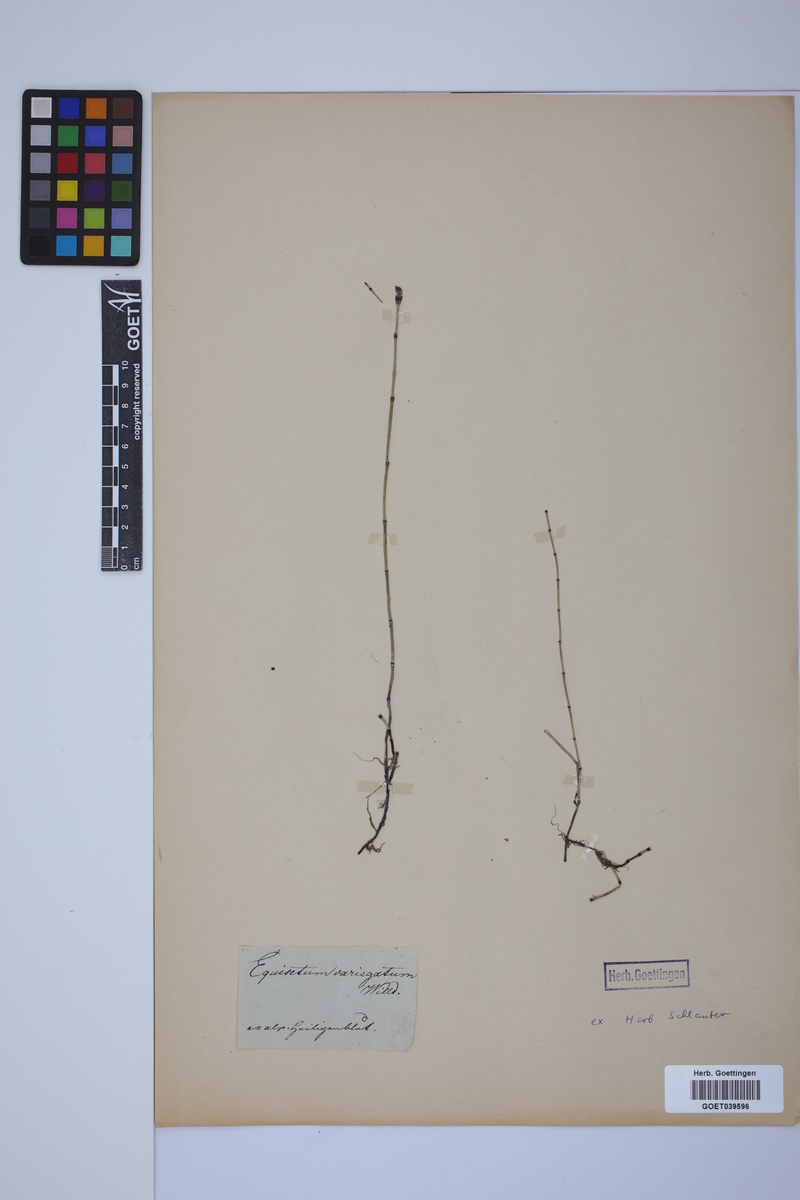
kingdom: Plantae
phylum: Tracheophyta
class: Polypodiopsida
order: Equisetales
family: Equisetaceae
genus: Equisetum
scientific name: Equisetum variegatum
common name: Variegated horsetail
